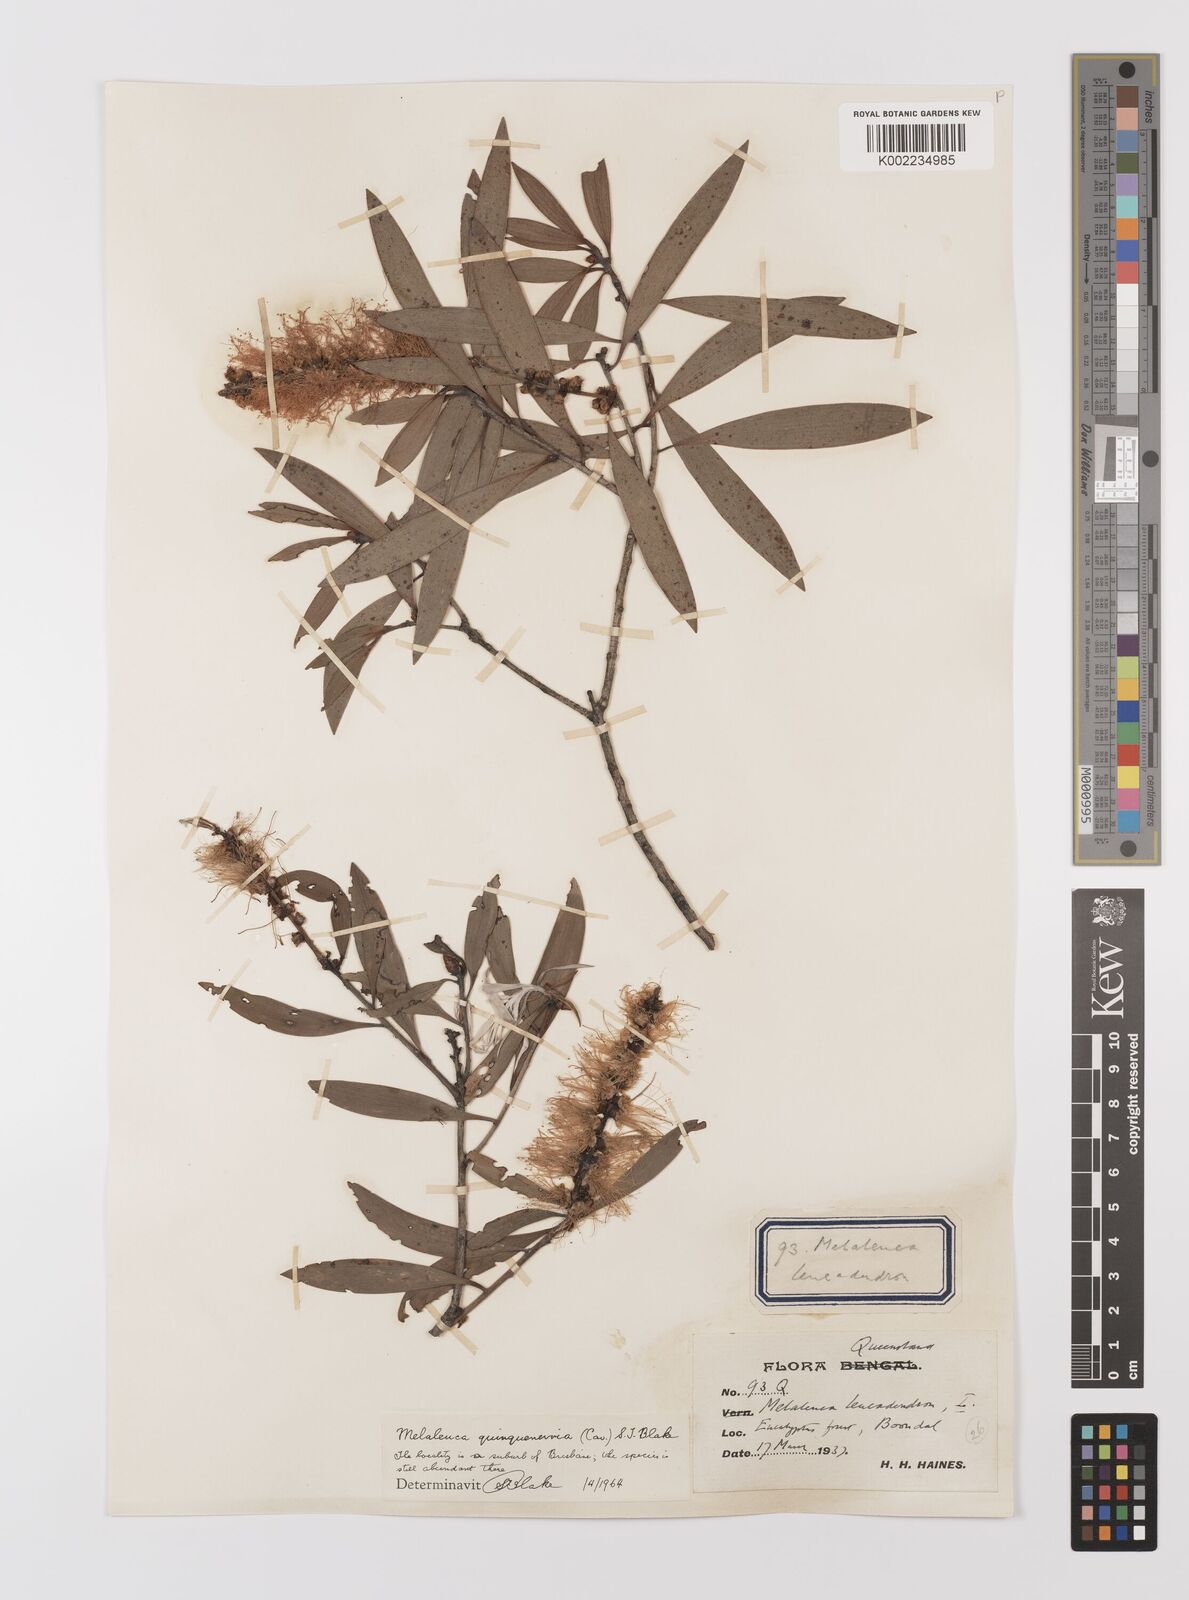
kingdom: Plantae
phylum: Tracheophyta
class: Magnoliopsida
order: Myrtales
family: Myrtaceae
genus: Melaleuca
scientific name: Melaleuca quinquenervia
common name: Punktree
